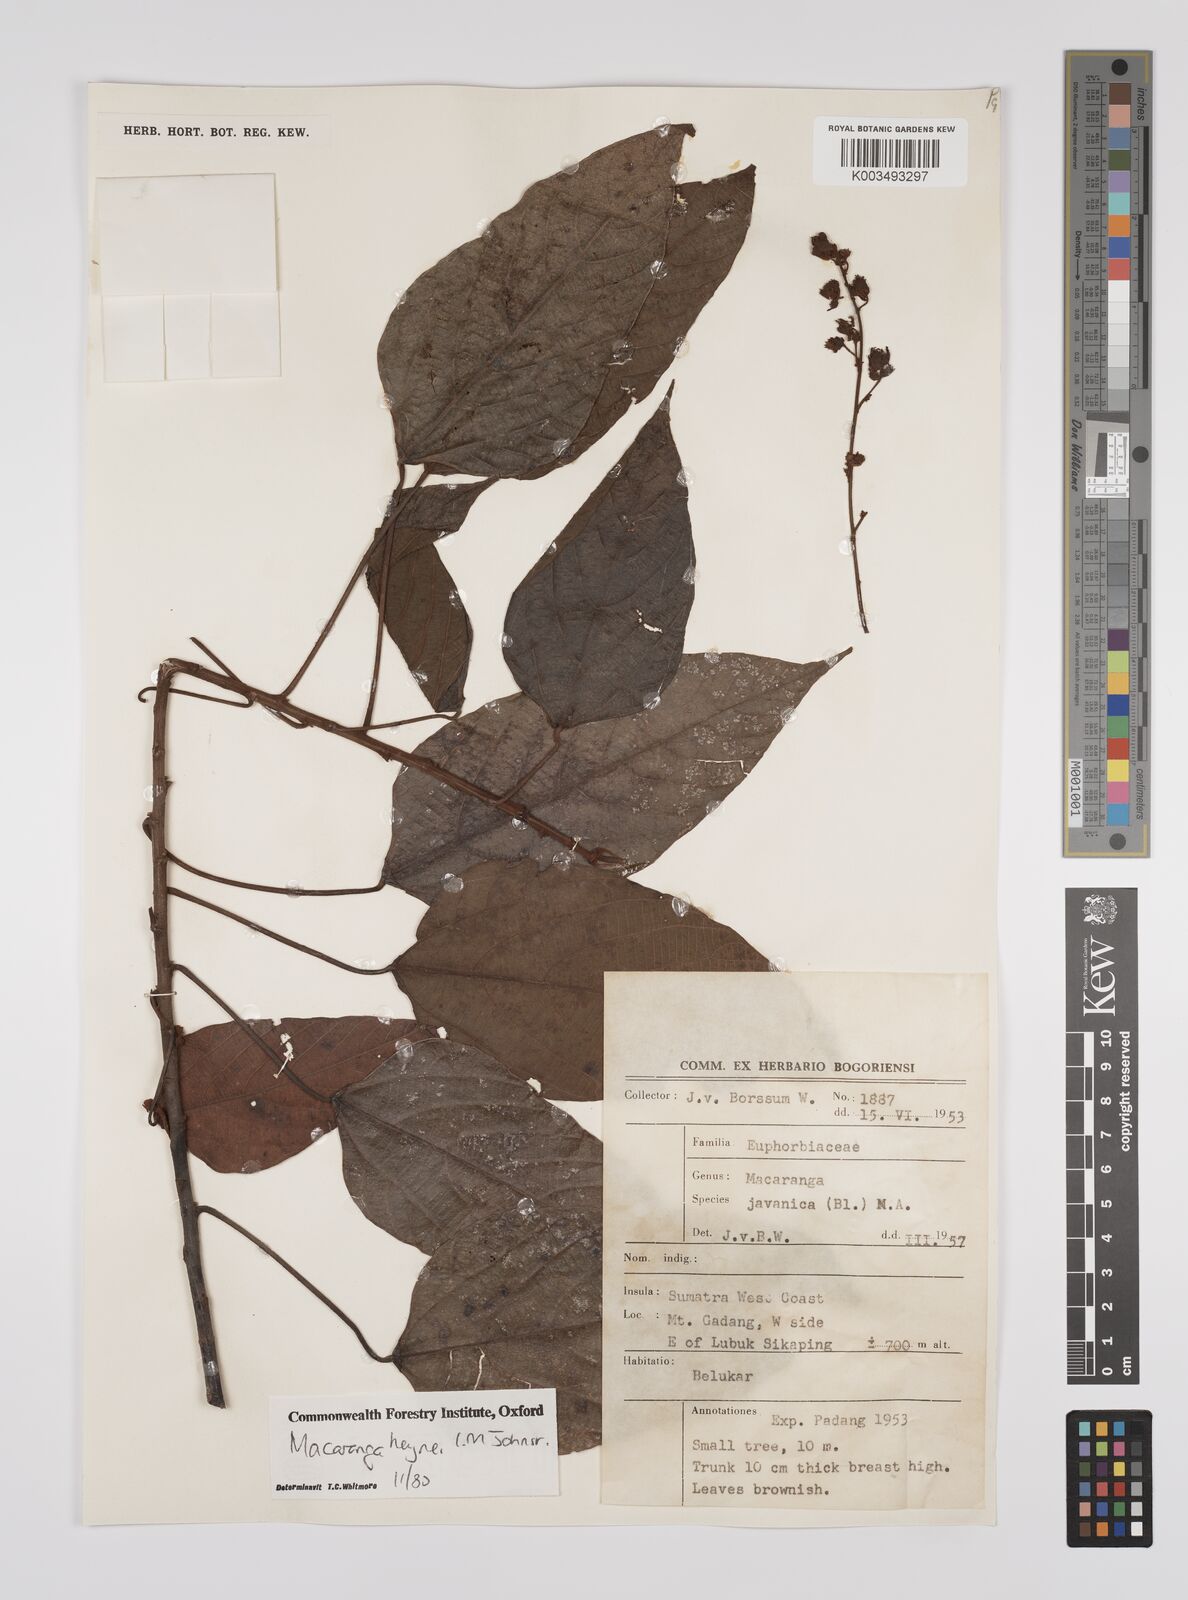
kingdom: Plantae
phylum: Tracheophyta
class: Magnoliopsida
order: Malpighiales
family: Euphorbiaceae
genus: Macaranga
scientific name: Macaranga heynei
